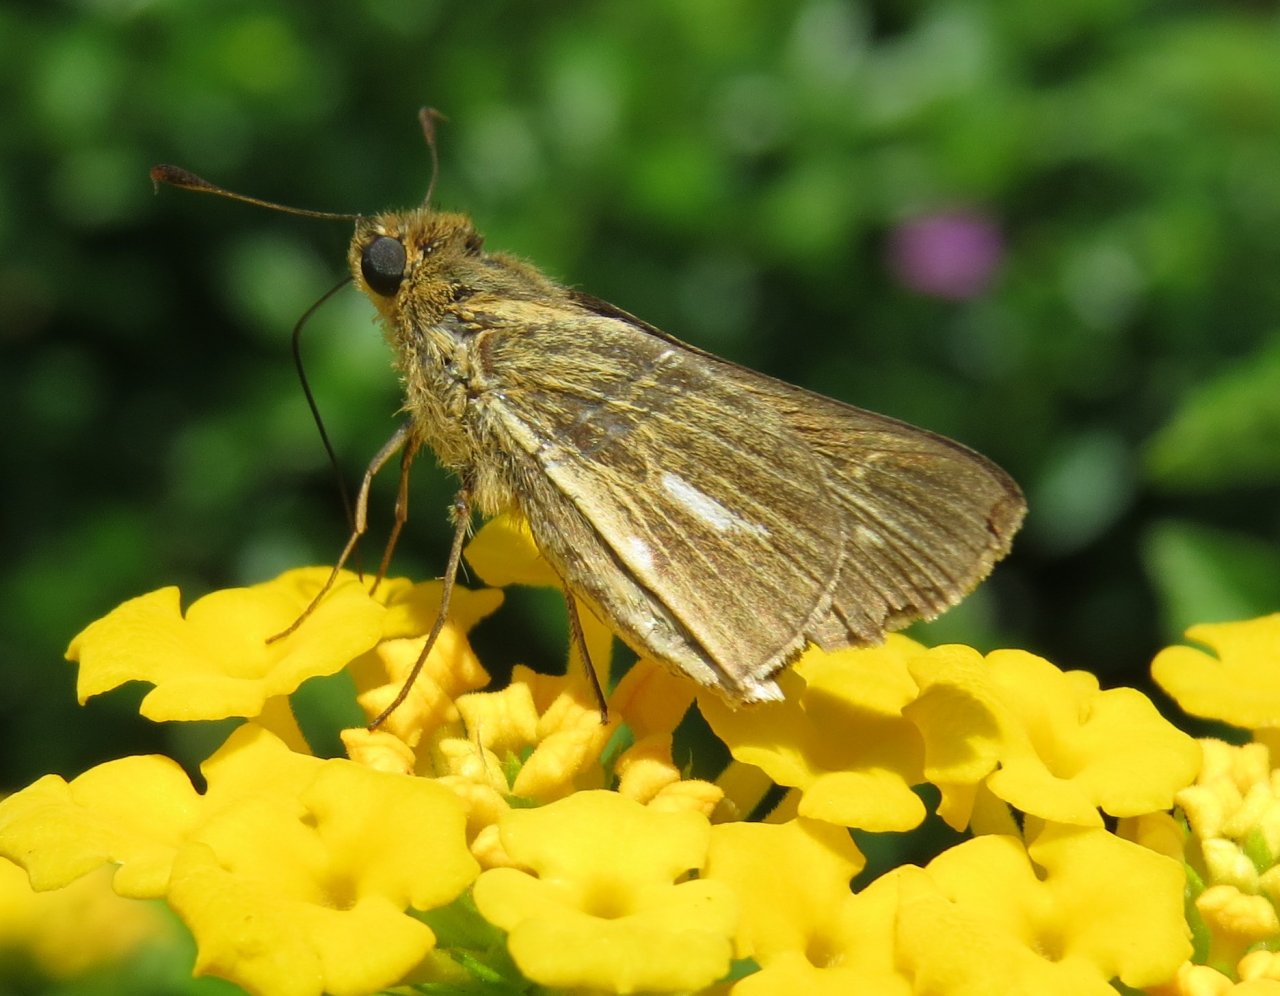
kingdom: Animalia
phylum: Arthropoda
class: Insecta
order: Lepidoptera
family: Hesperiidae
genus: Panoquina
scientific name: Panoquina panoquin
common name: Salt Marsh Skipper
